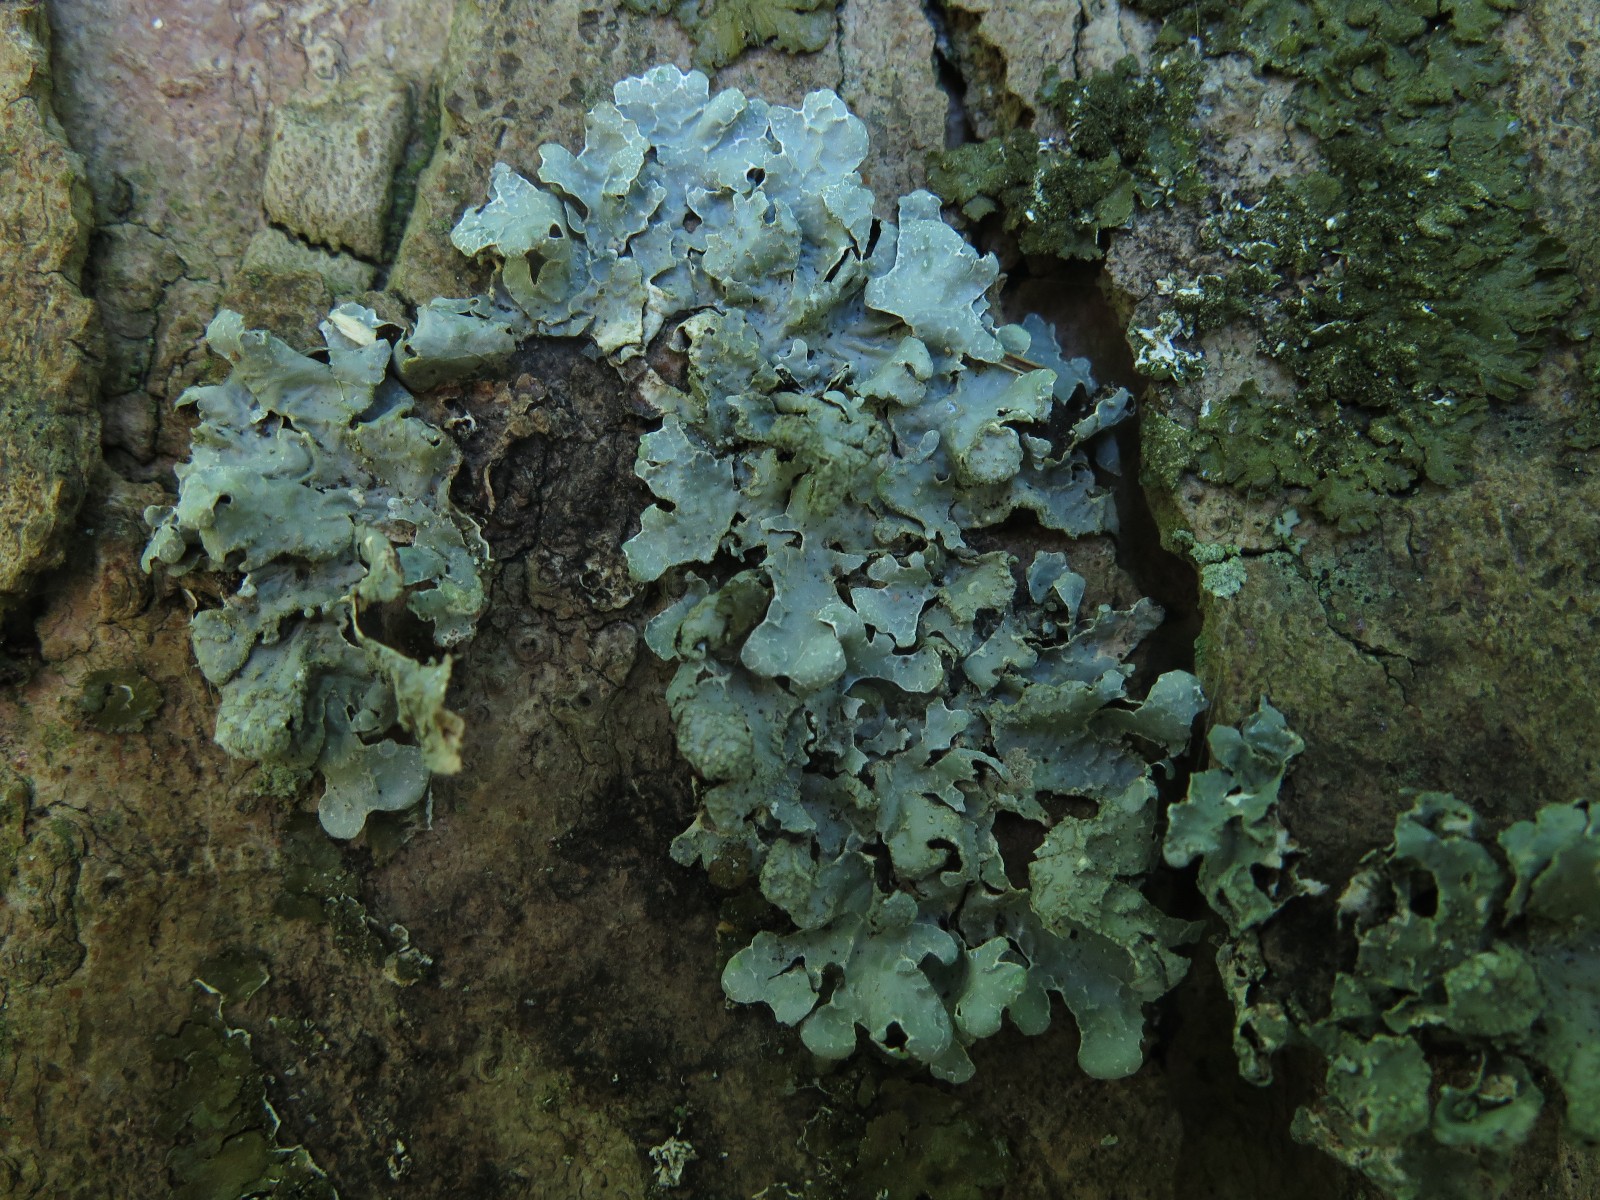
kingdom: Fungi
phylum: Ascomycota
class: Lecanoromycetes
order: Lecanorales
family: Parmeliaceae
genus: Parmelia
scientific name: Parmelia sulcata
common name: rynket skållav
